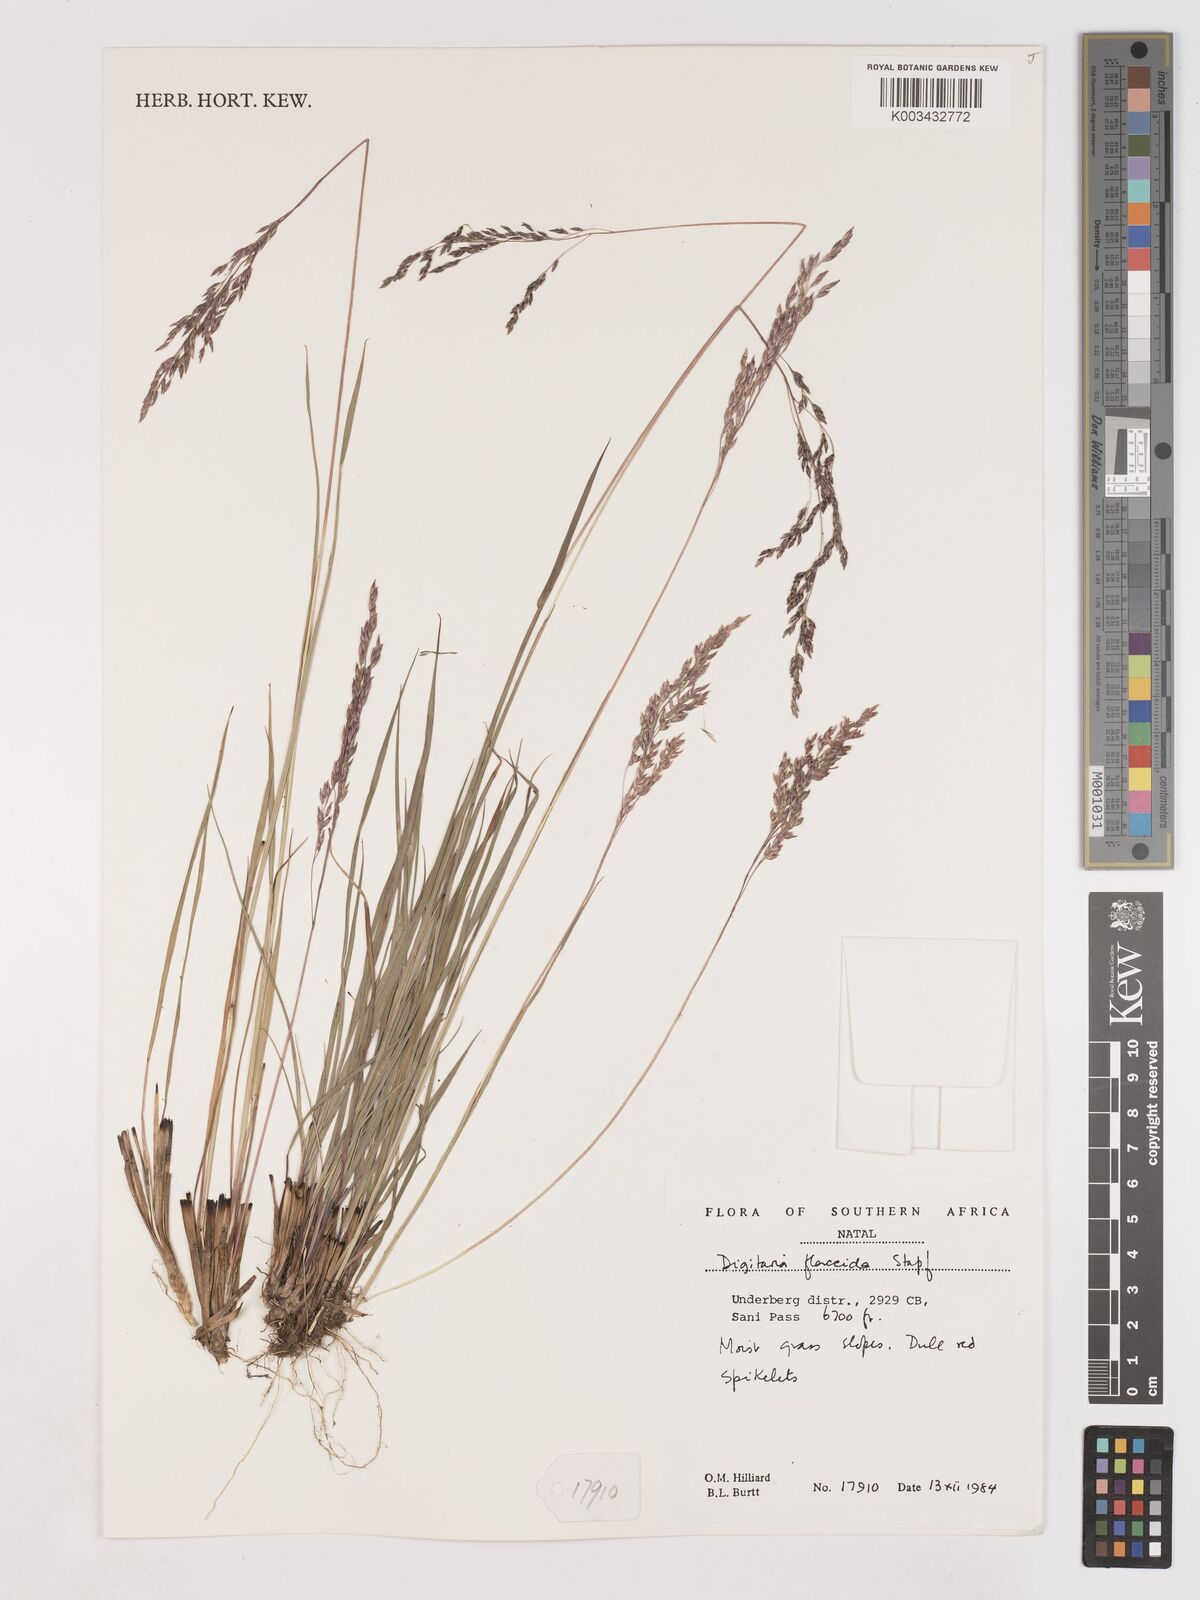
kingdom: Plantae
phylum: Tracheophyta
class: Liliopsida
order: Poales
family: Poaceae
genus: Digitaria
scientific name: Digitaria flaccida
